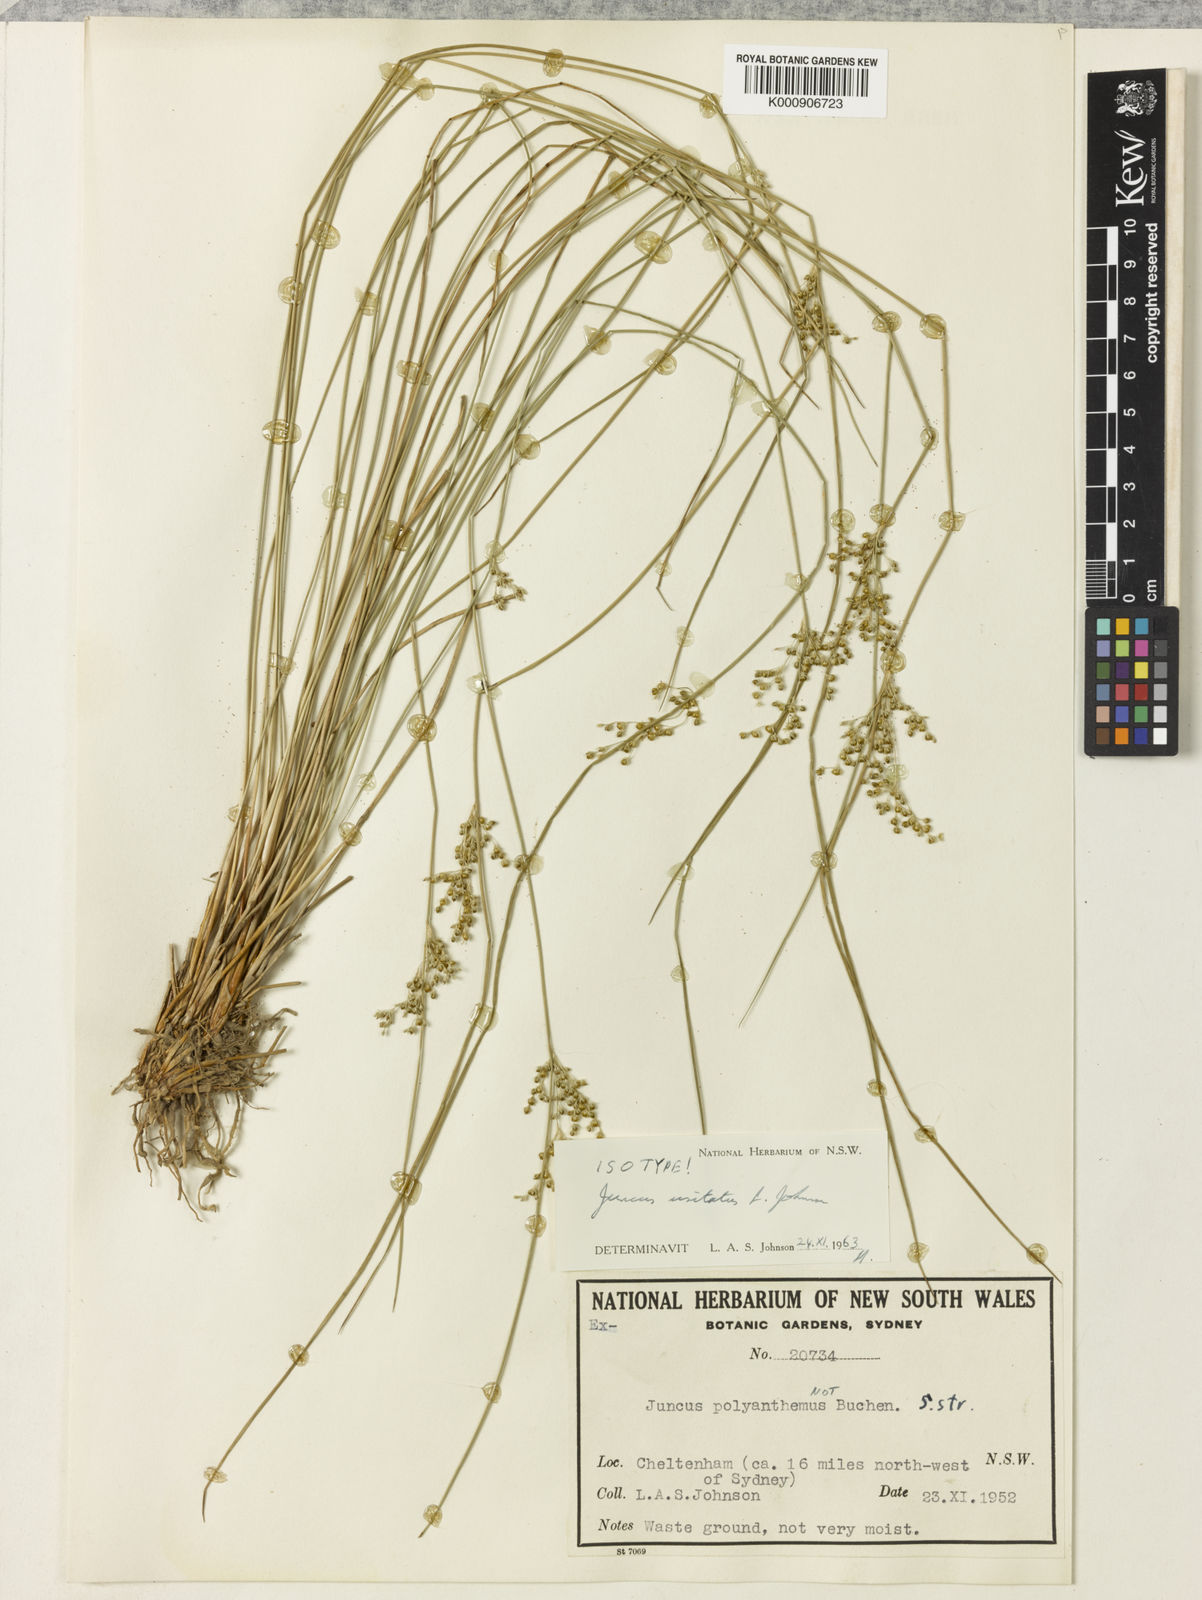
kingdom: Plantae
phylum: Tracheophyta
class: Liliopsida
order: Poales
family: Juncaceae
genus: Juncus
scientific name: Juncus usitatus
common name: Rush
